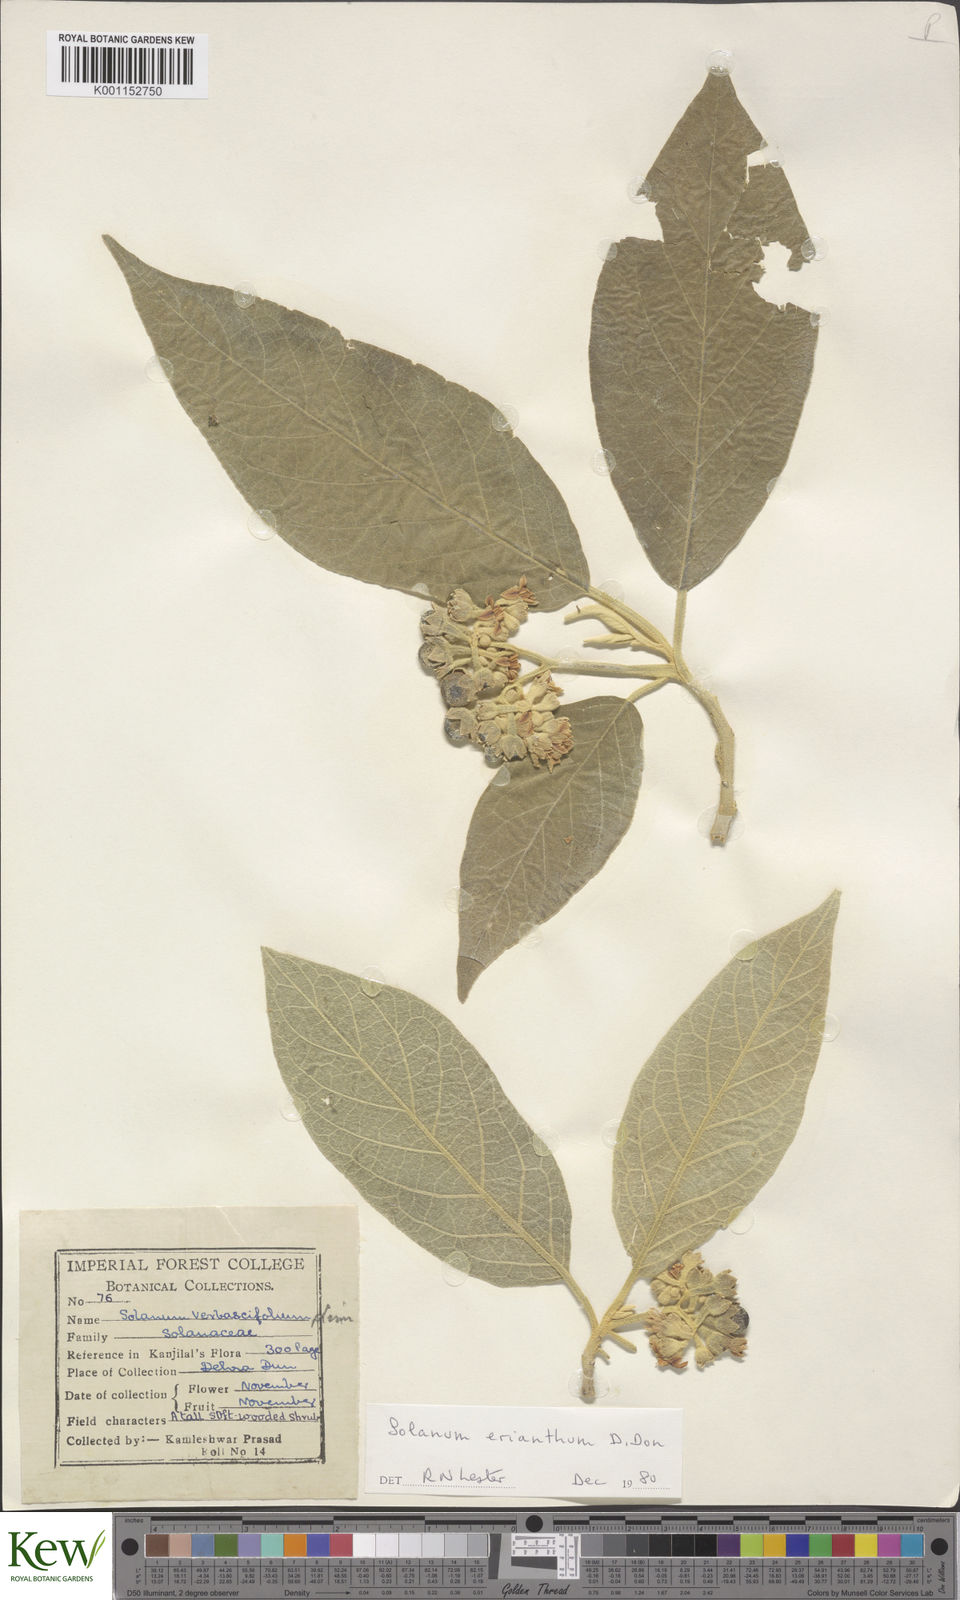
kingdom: Plantae
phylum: Tracheophyta
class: Magnoliopsida
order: Solanales
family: Solanaceae
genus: Solanum
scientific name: Solanum erianthum
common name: Tobacco-tree
